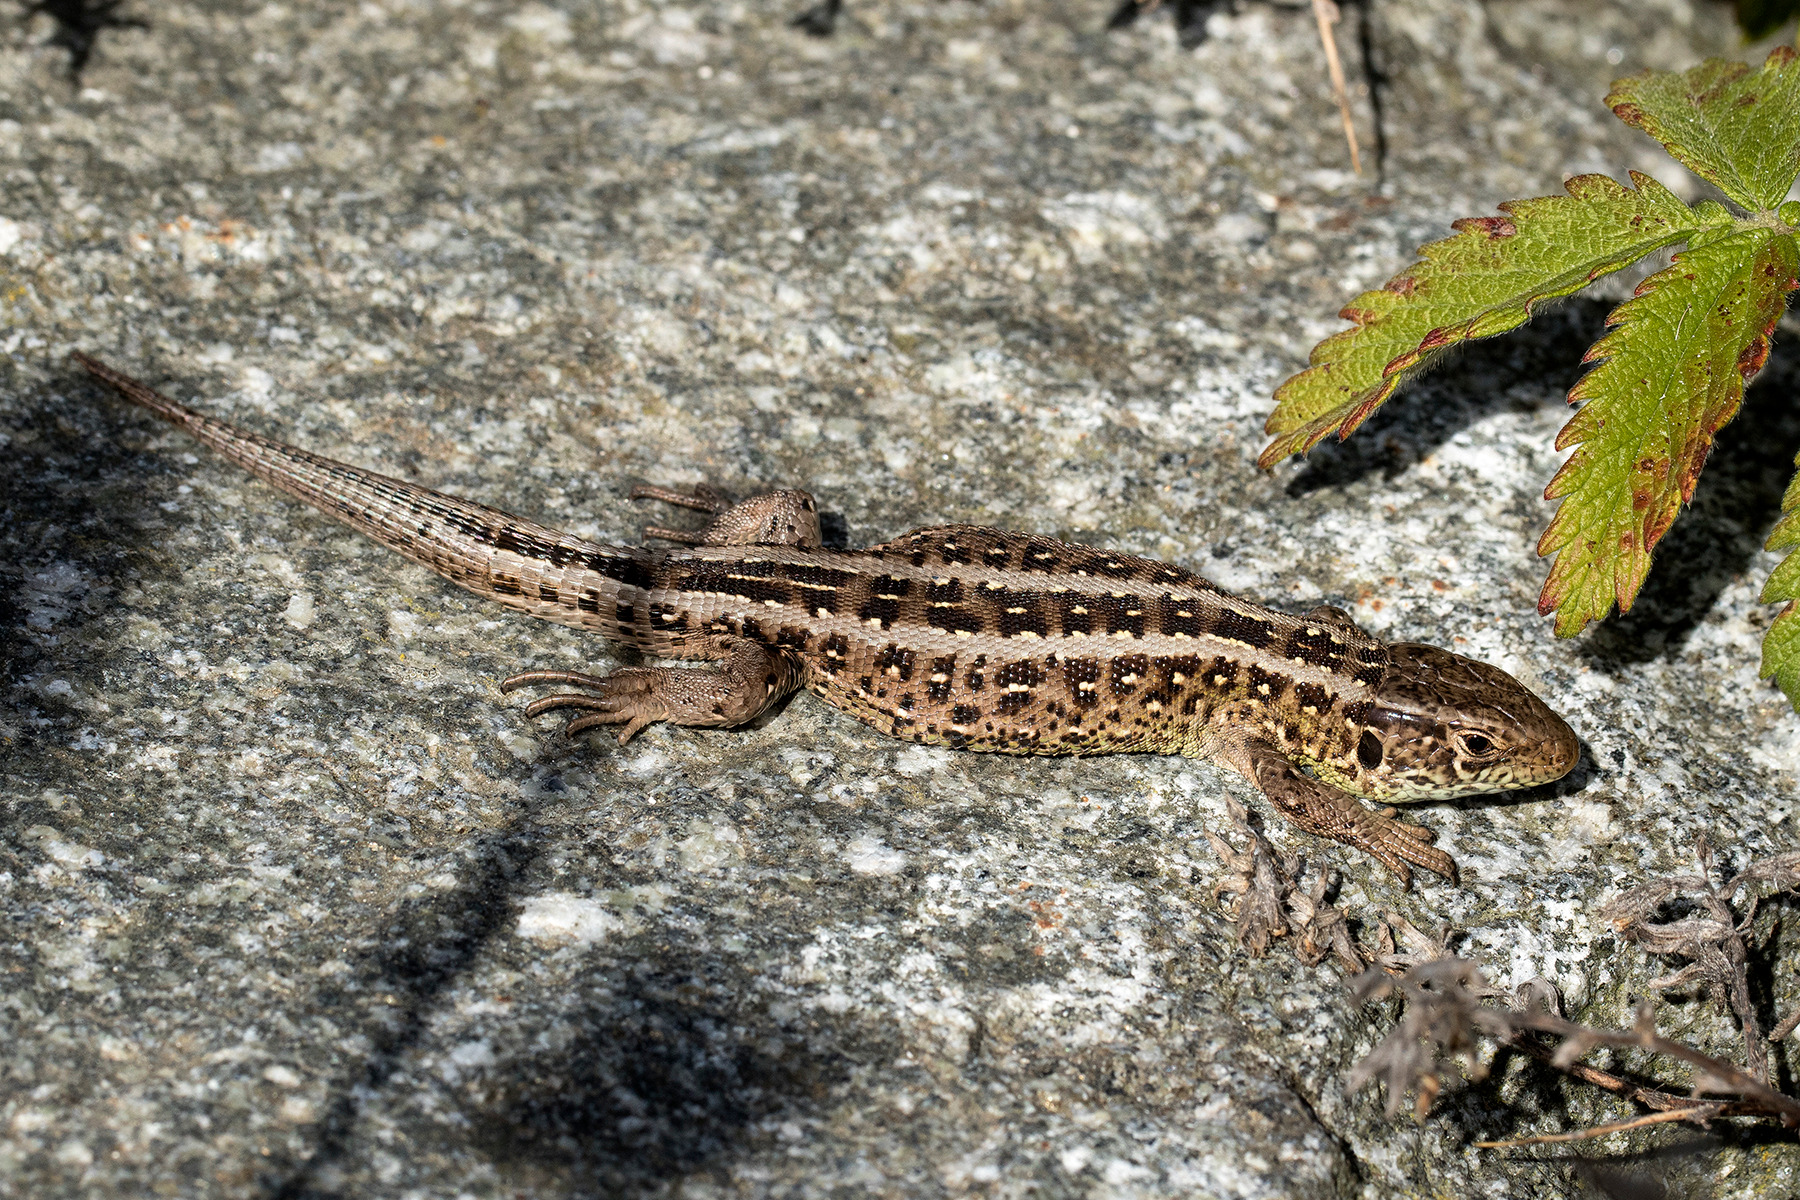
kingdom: Animalia
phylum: Chordata
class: Squamata
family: Lacertidae
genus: Lacerta
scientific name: Lacerta agilis
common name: Markfirben
